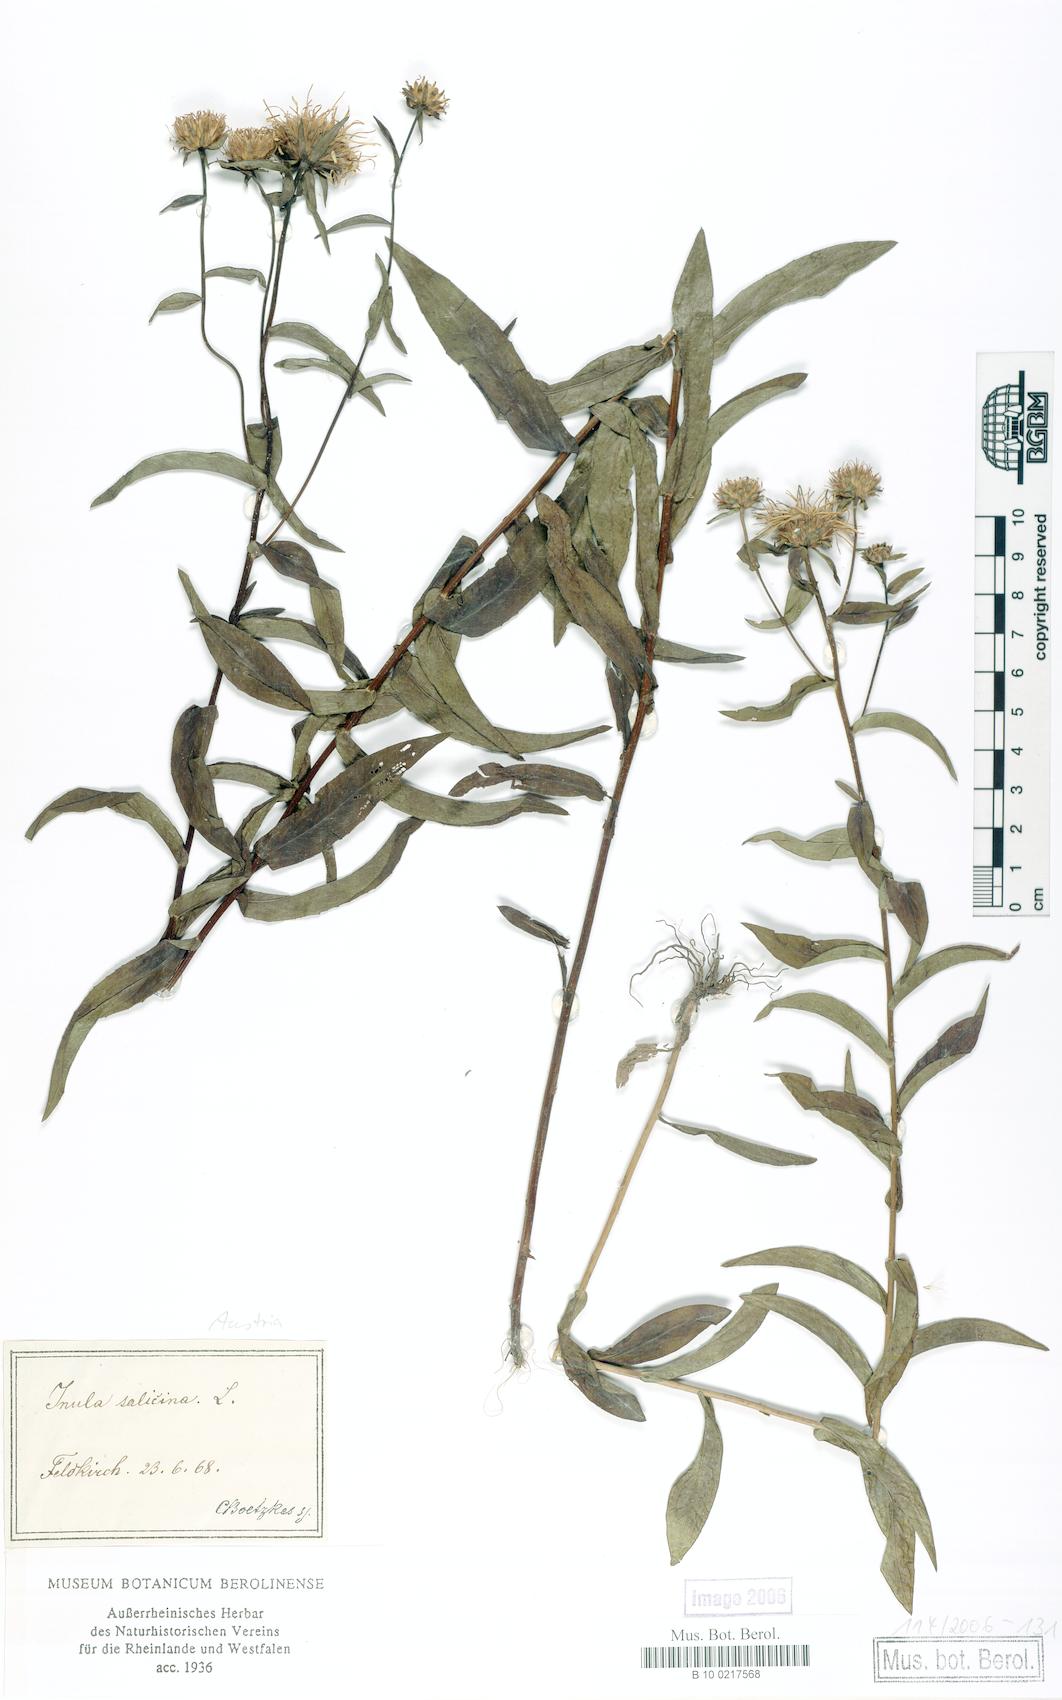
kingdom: Plantae
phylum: Tracheophyta
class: Magnoliopsida
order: Asterales
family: Asteraceae
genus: Pentanema
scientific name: Pentanema salicinum
